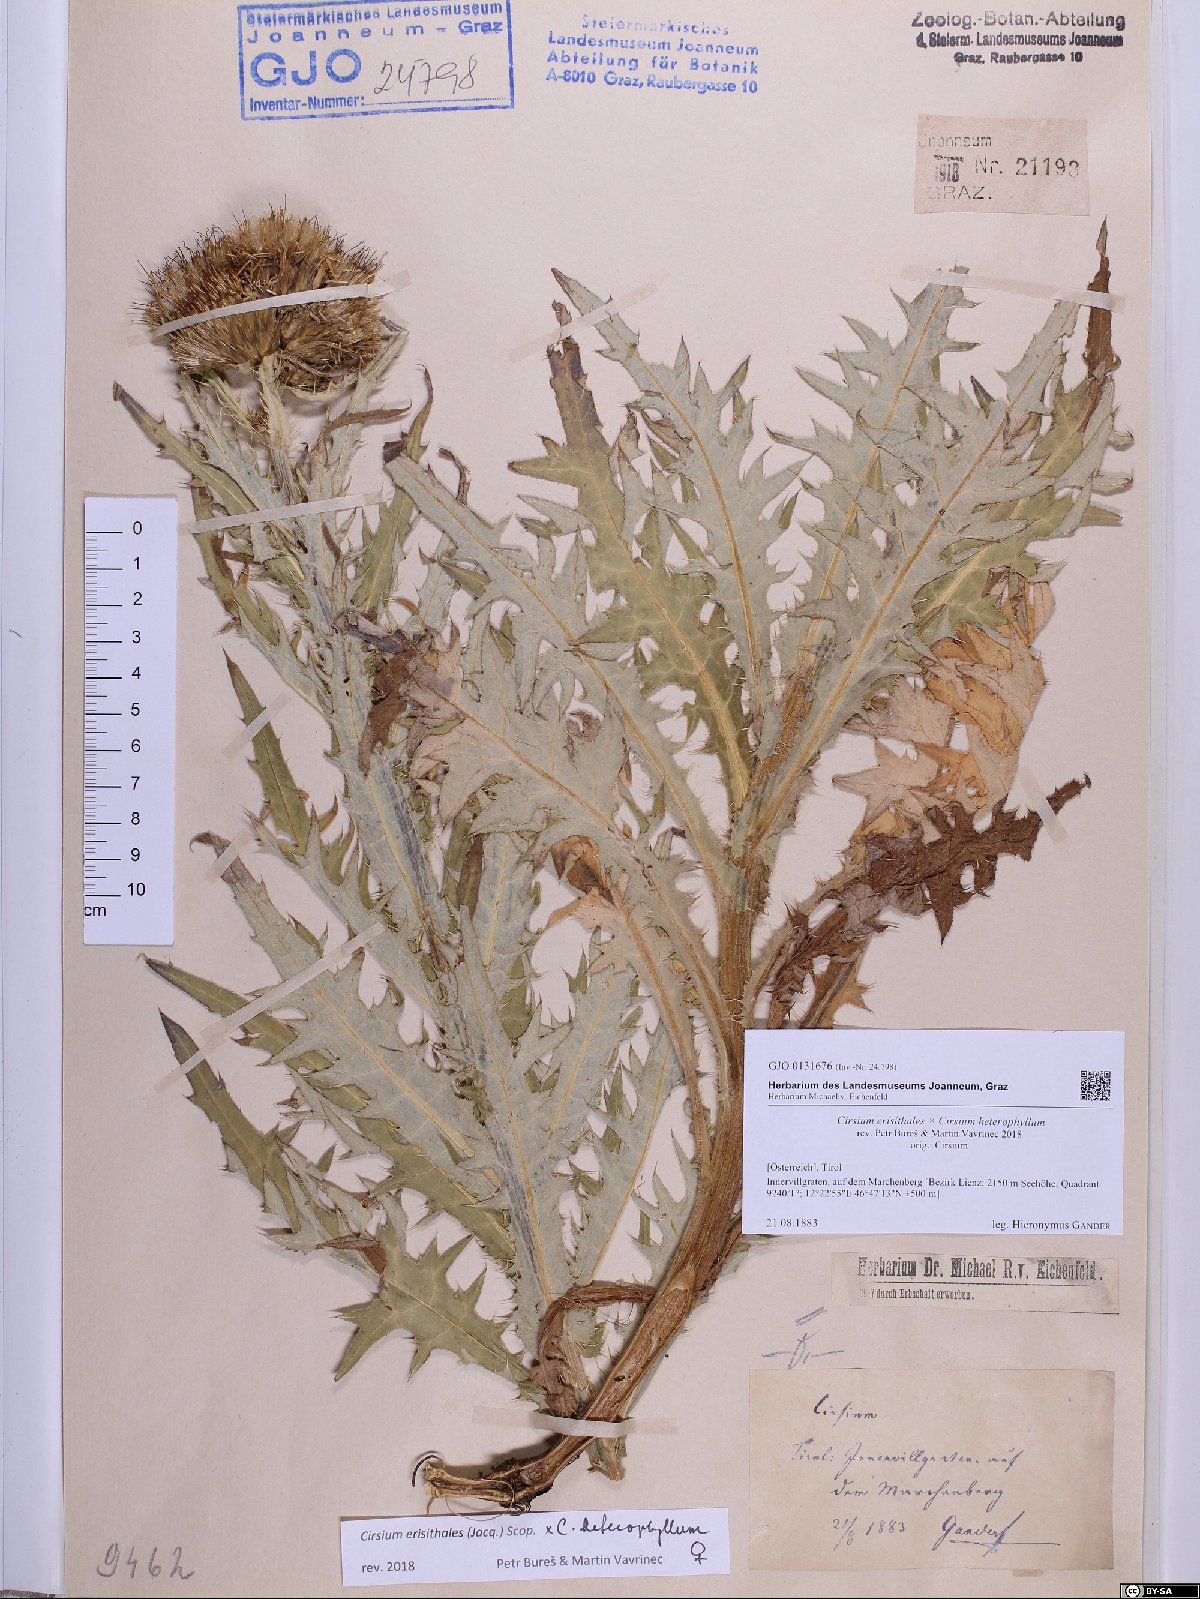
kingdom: Plantae
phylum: Tracheophyta
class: Magnoliopsida
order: Asterales
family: Asteraceae
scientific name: Asteraceae
